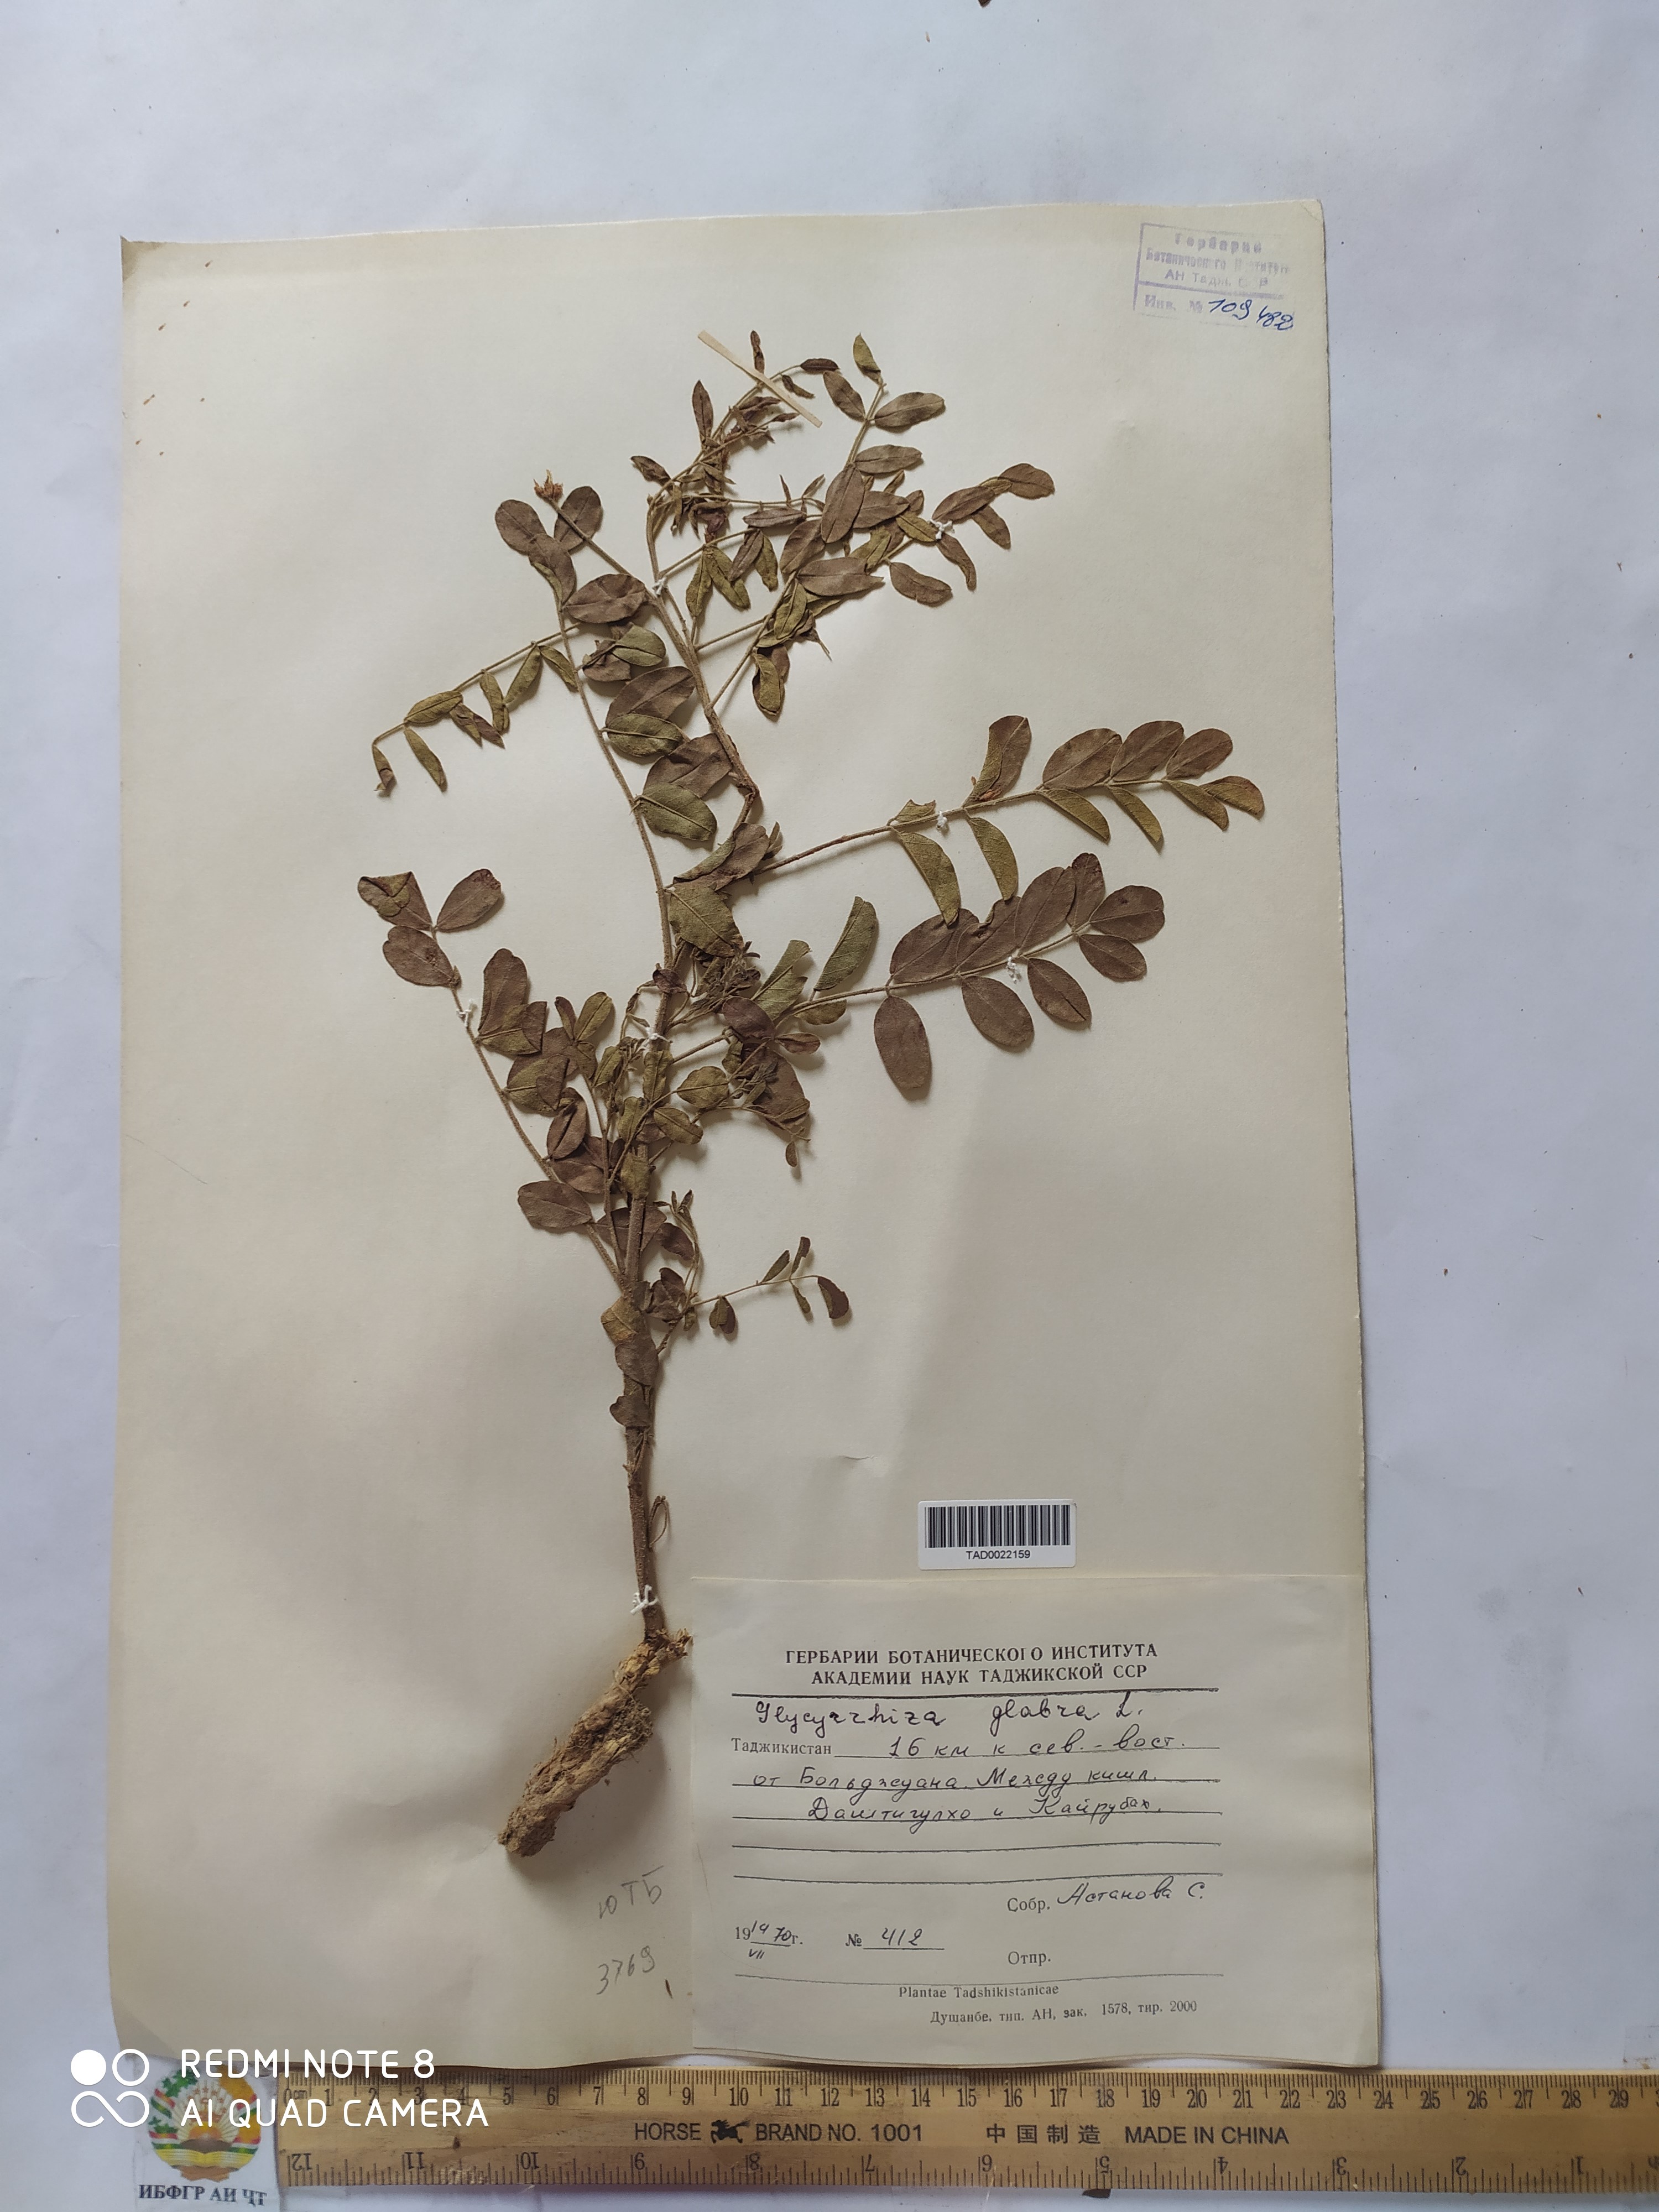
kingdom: Plantae
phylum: Tracheophyta
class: Magnoliopsida
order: Fabales
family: Fabaceae
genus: Glycyrrhiza
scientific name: Glycyrrhiza glabra
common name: Liquorice
